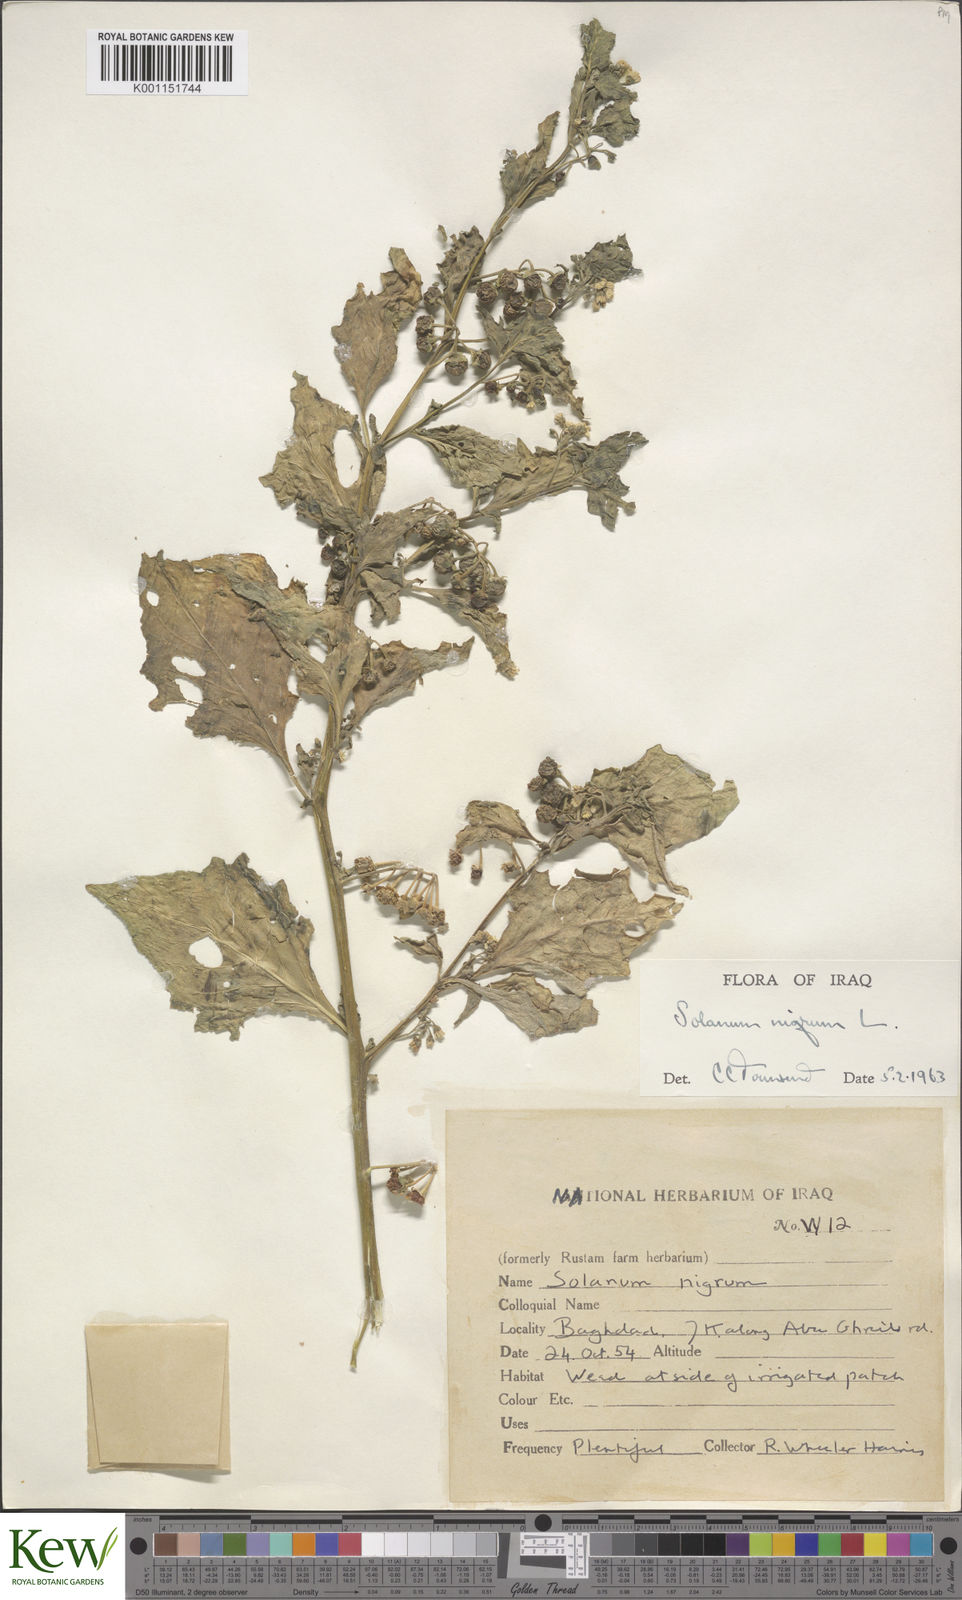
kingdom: Plantae
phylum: Tracheophyta
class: Magnoliopsida
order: Solanales
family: Solanaceae
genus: Solanum
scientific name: Solanum nigrum
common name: Black nightshade
